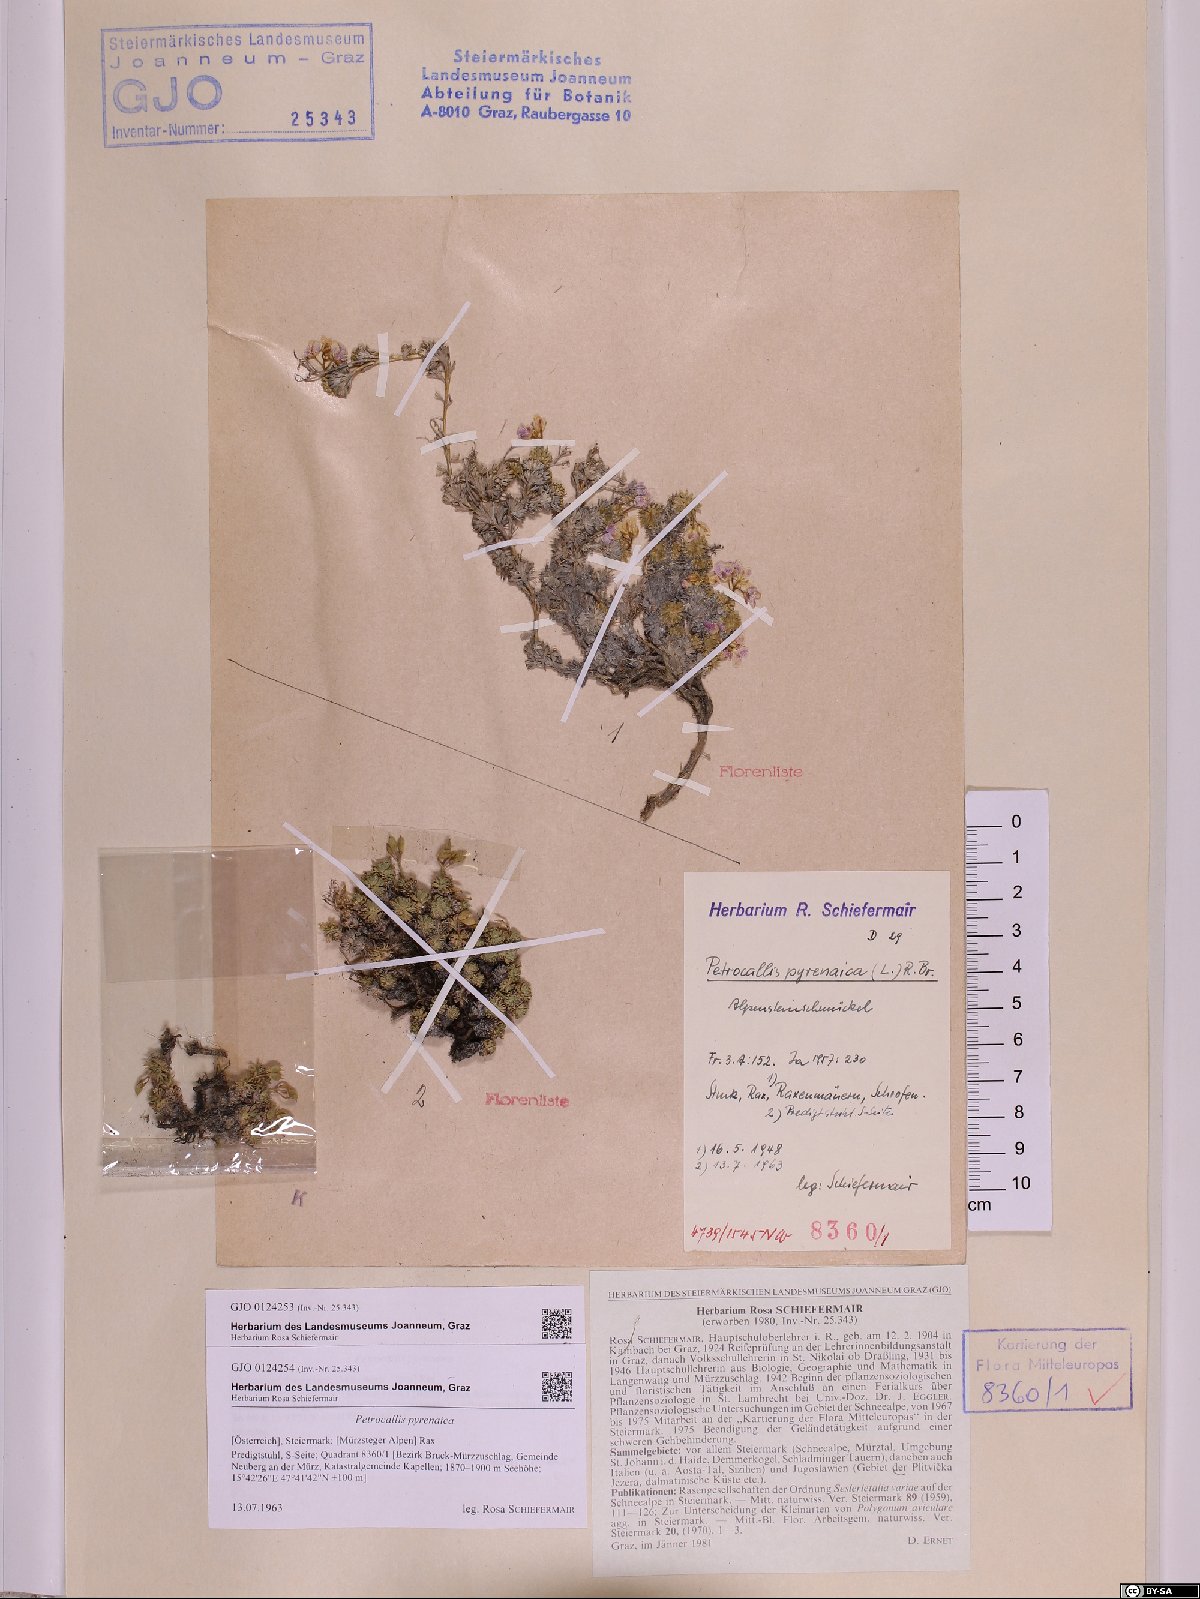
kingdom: Plantae
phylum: Tracheophyta
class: Magnoliopsida
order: Brassicales
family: Brassicaceae
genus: Petrocallis
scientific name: Petrocallis pyrenaica
